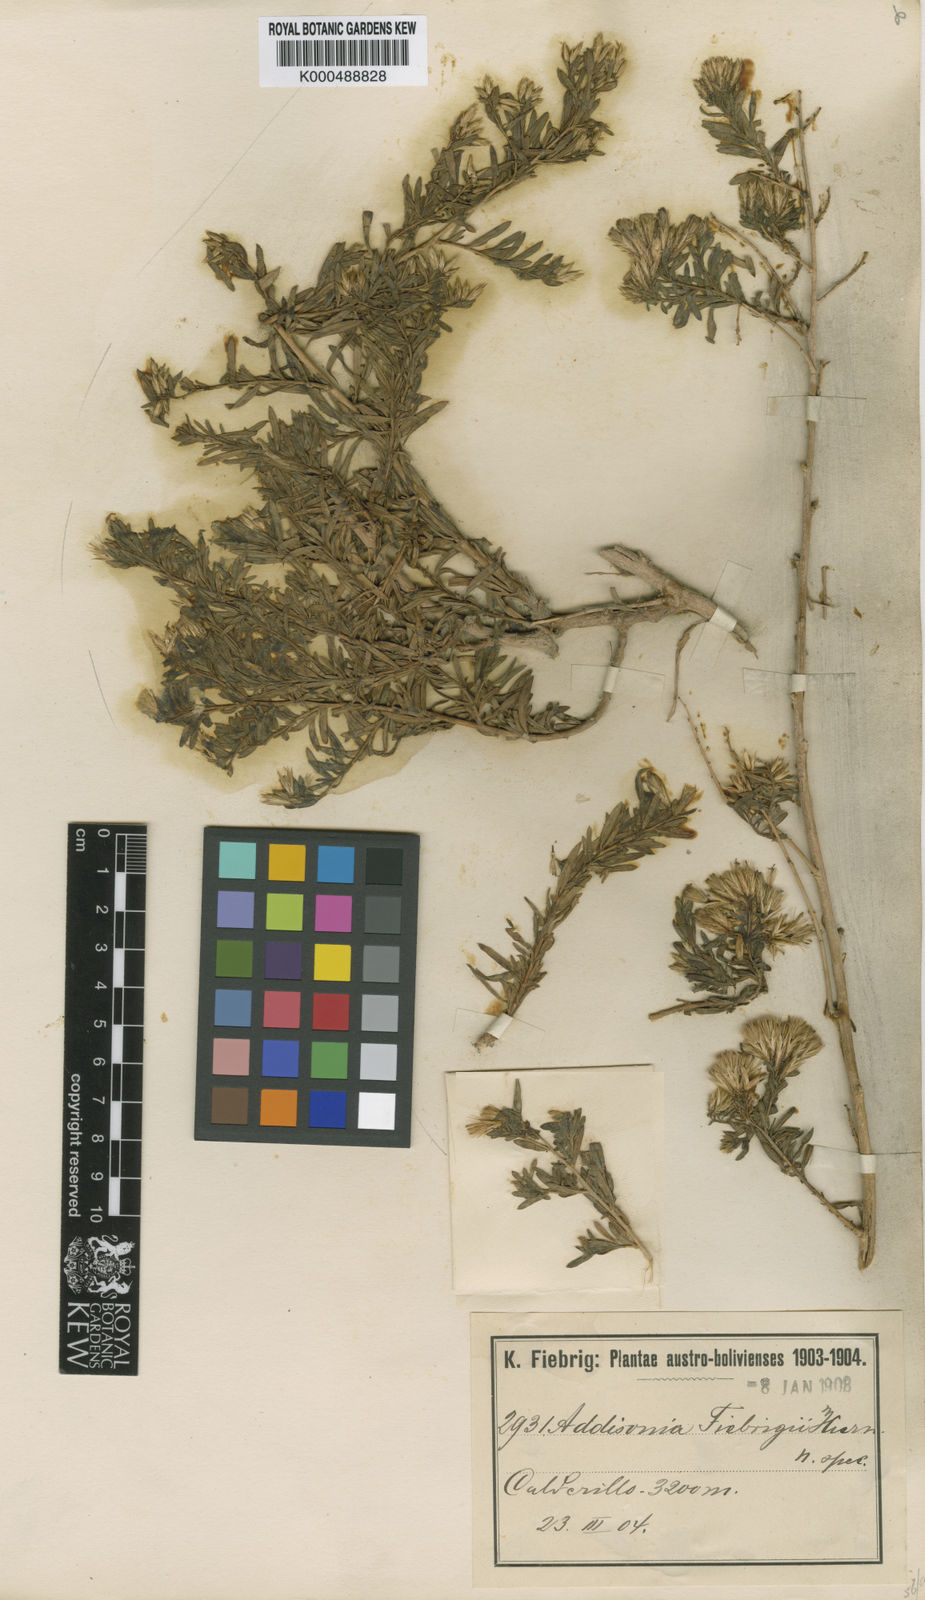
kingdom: Plantae
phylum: Tracheophyta
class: Magnoliopsida
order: Asterales
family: Asteraceae
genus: Helogyne
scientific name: Helogyne straminea
